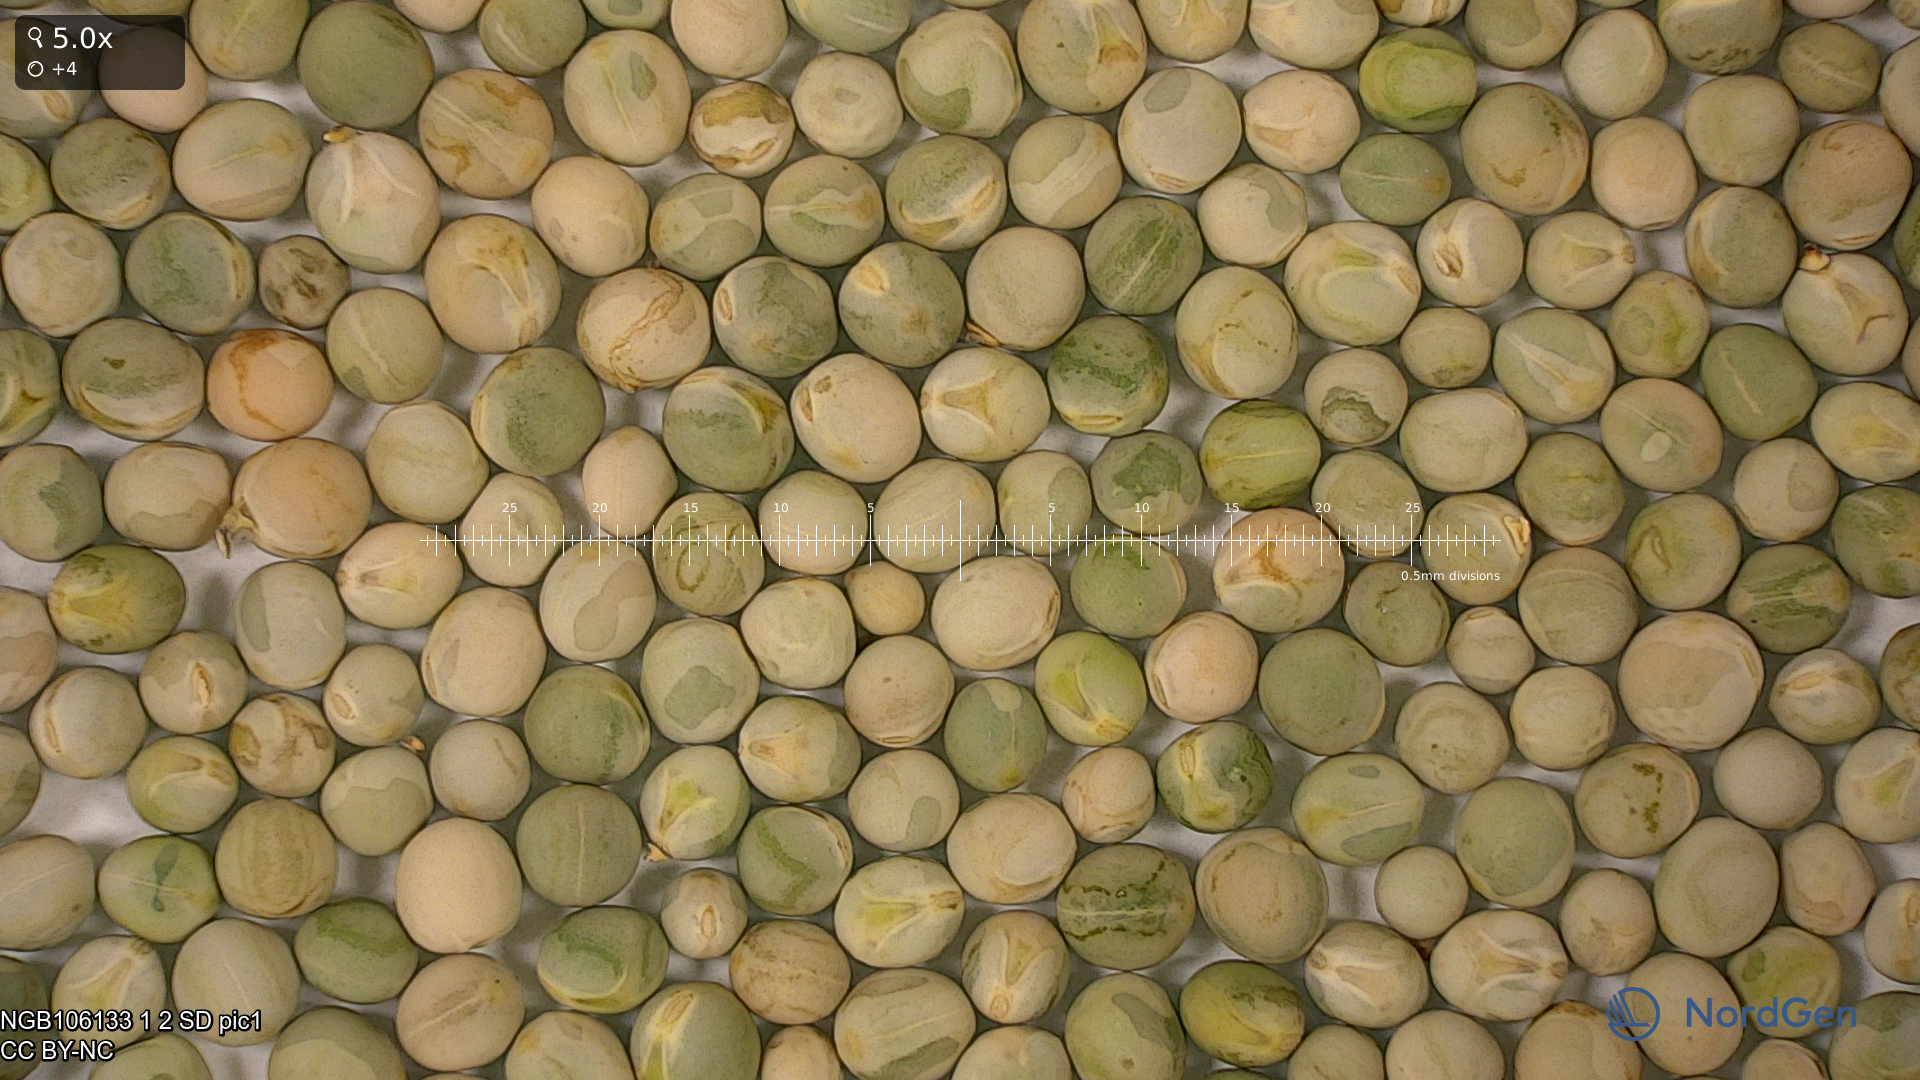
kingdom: Plantae
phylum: Tracheophyta
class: Magnoliopsida
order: Fabales
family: Fabaceae
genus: Lathyrus
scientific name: Lathyrus oleraceus
